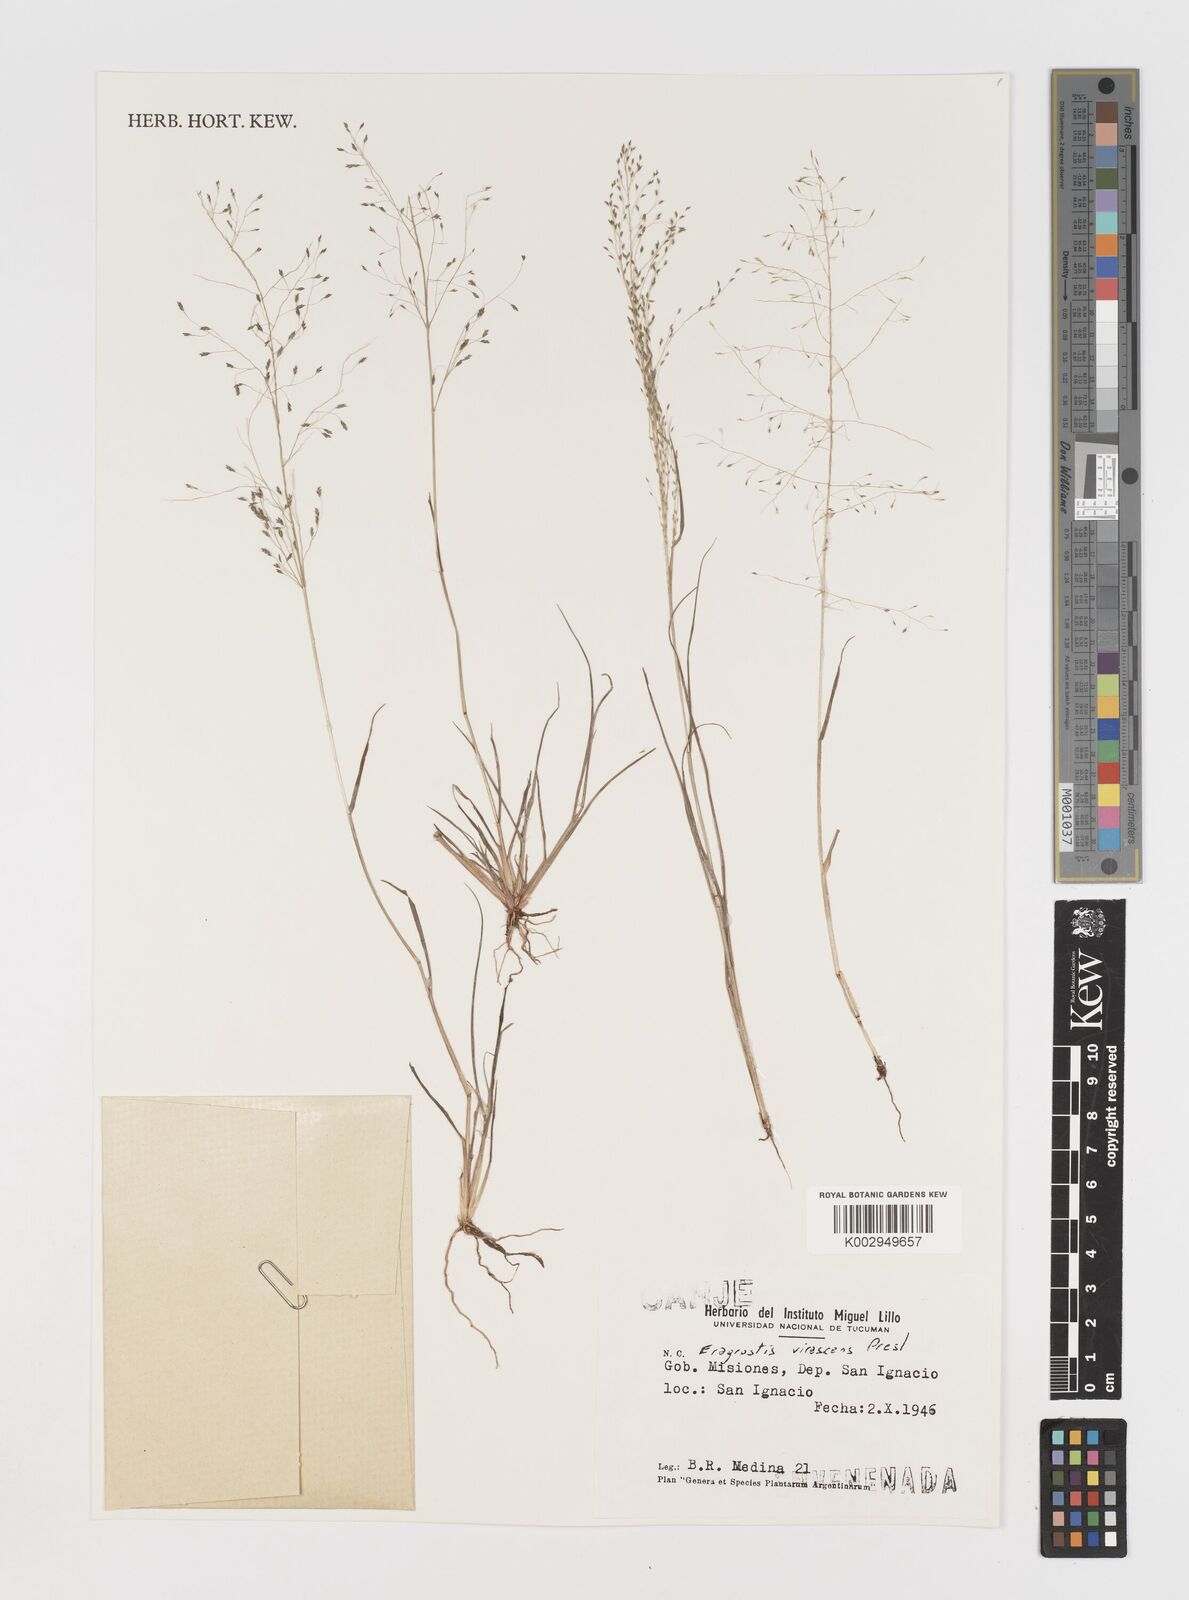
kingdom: Plantae
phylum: Tracheophyta
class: Liliopsida
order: Poales
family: Poaceae
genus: Eragrostis
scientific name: Eragrostis mexicana
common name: Mexican love grass
